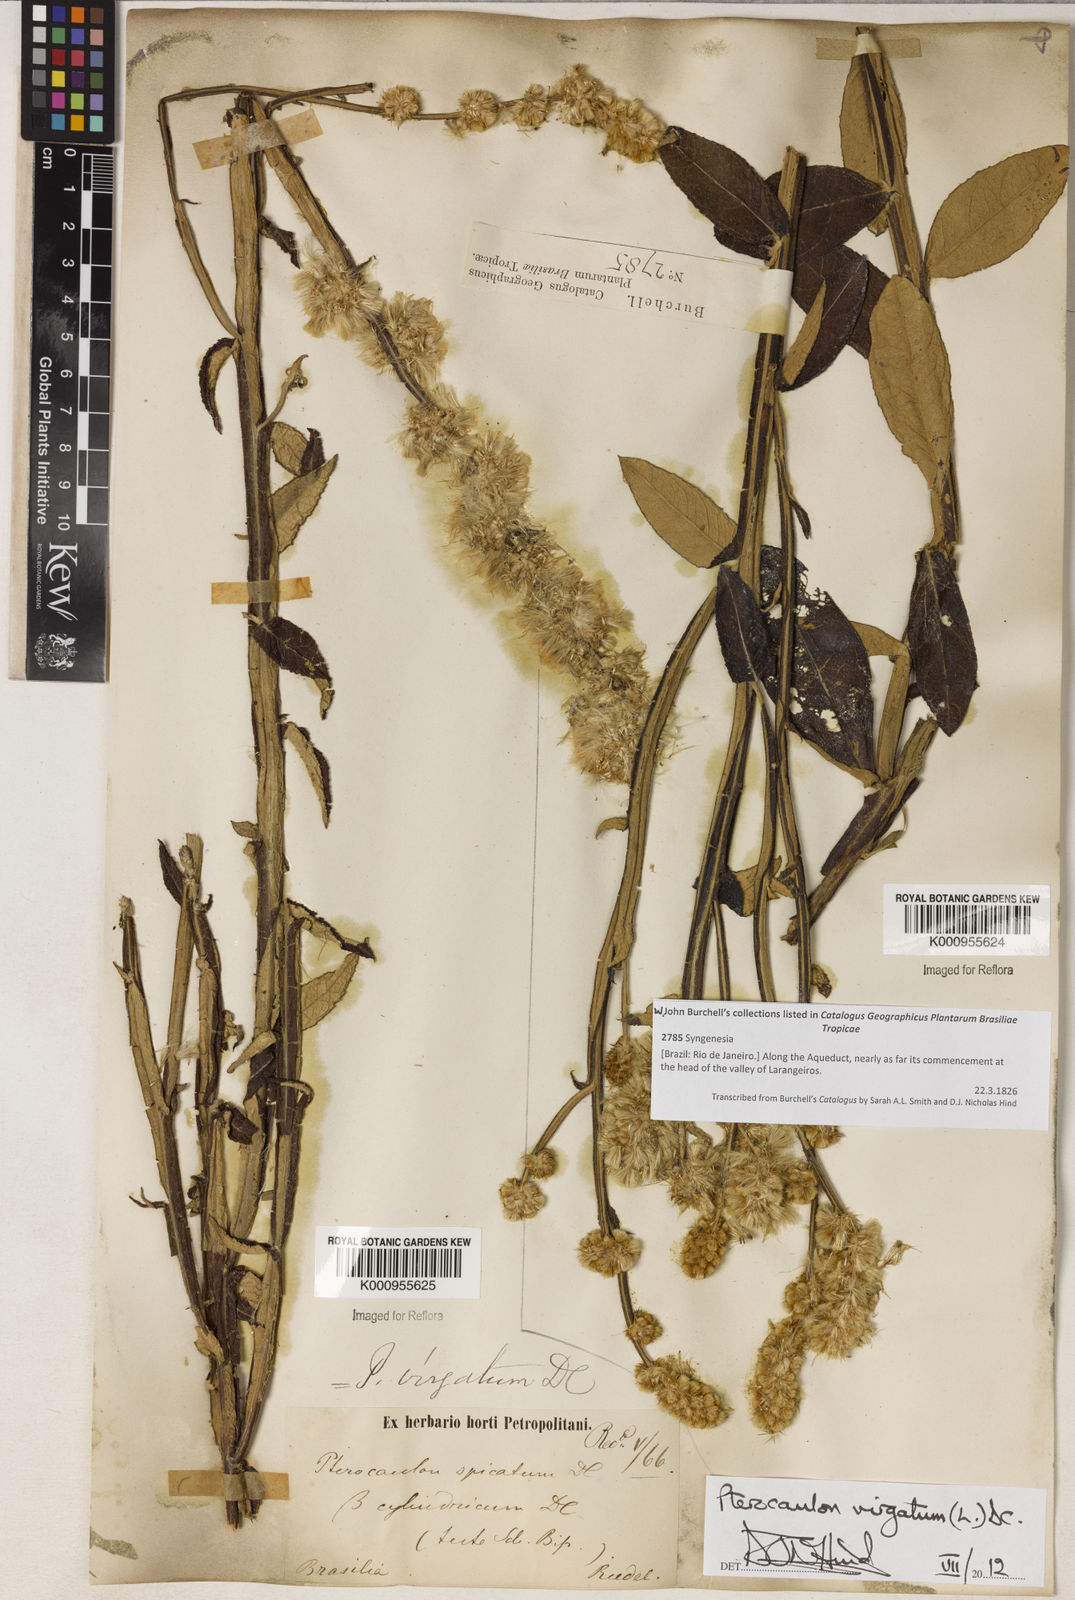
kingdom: Plantae
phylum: Tracheophyta
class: Magnoliopsida
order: Asterales
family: Asteraceae
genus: Pterocaulon
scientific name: Pterocaulon virgatum
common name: Wand blackroot
